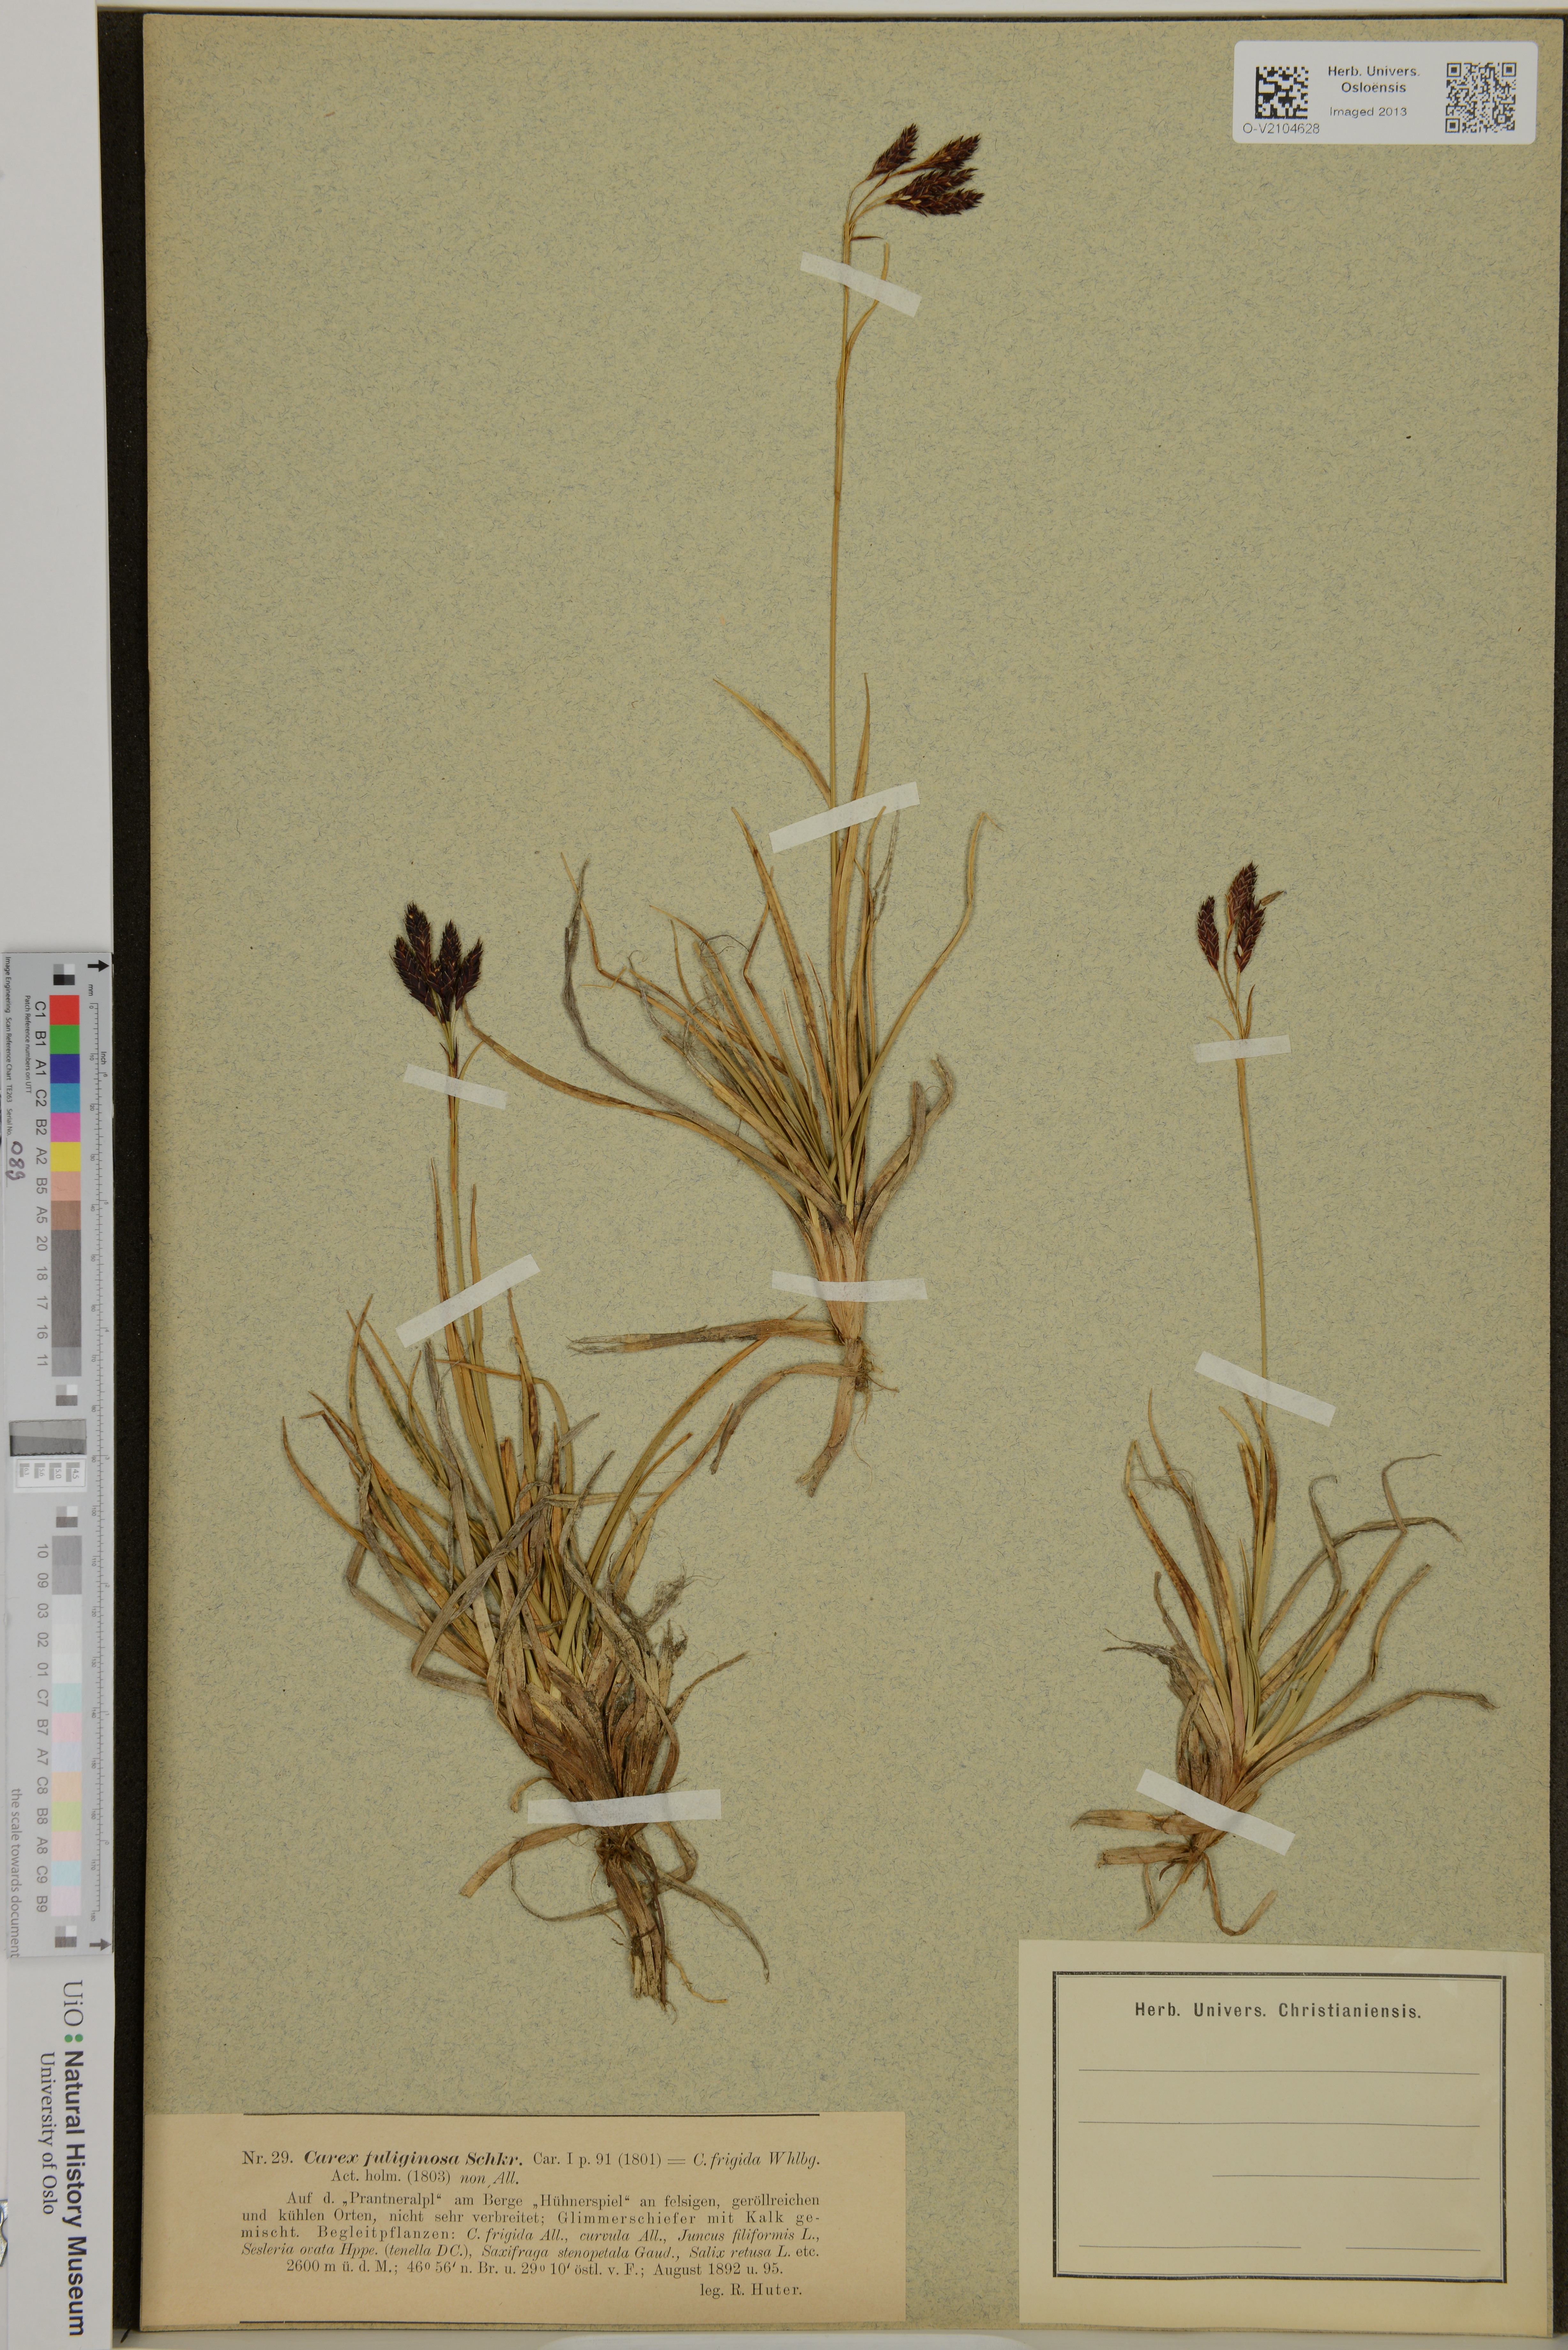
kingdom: Plantae
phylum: Tracheophyta
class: Liliopsida
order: Poales
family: Cyperaceae
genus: Carex
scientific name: Carex fuliginosa
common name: Few-flowered sedge
